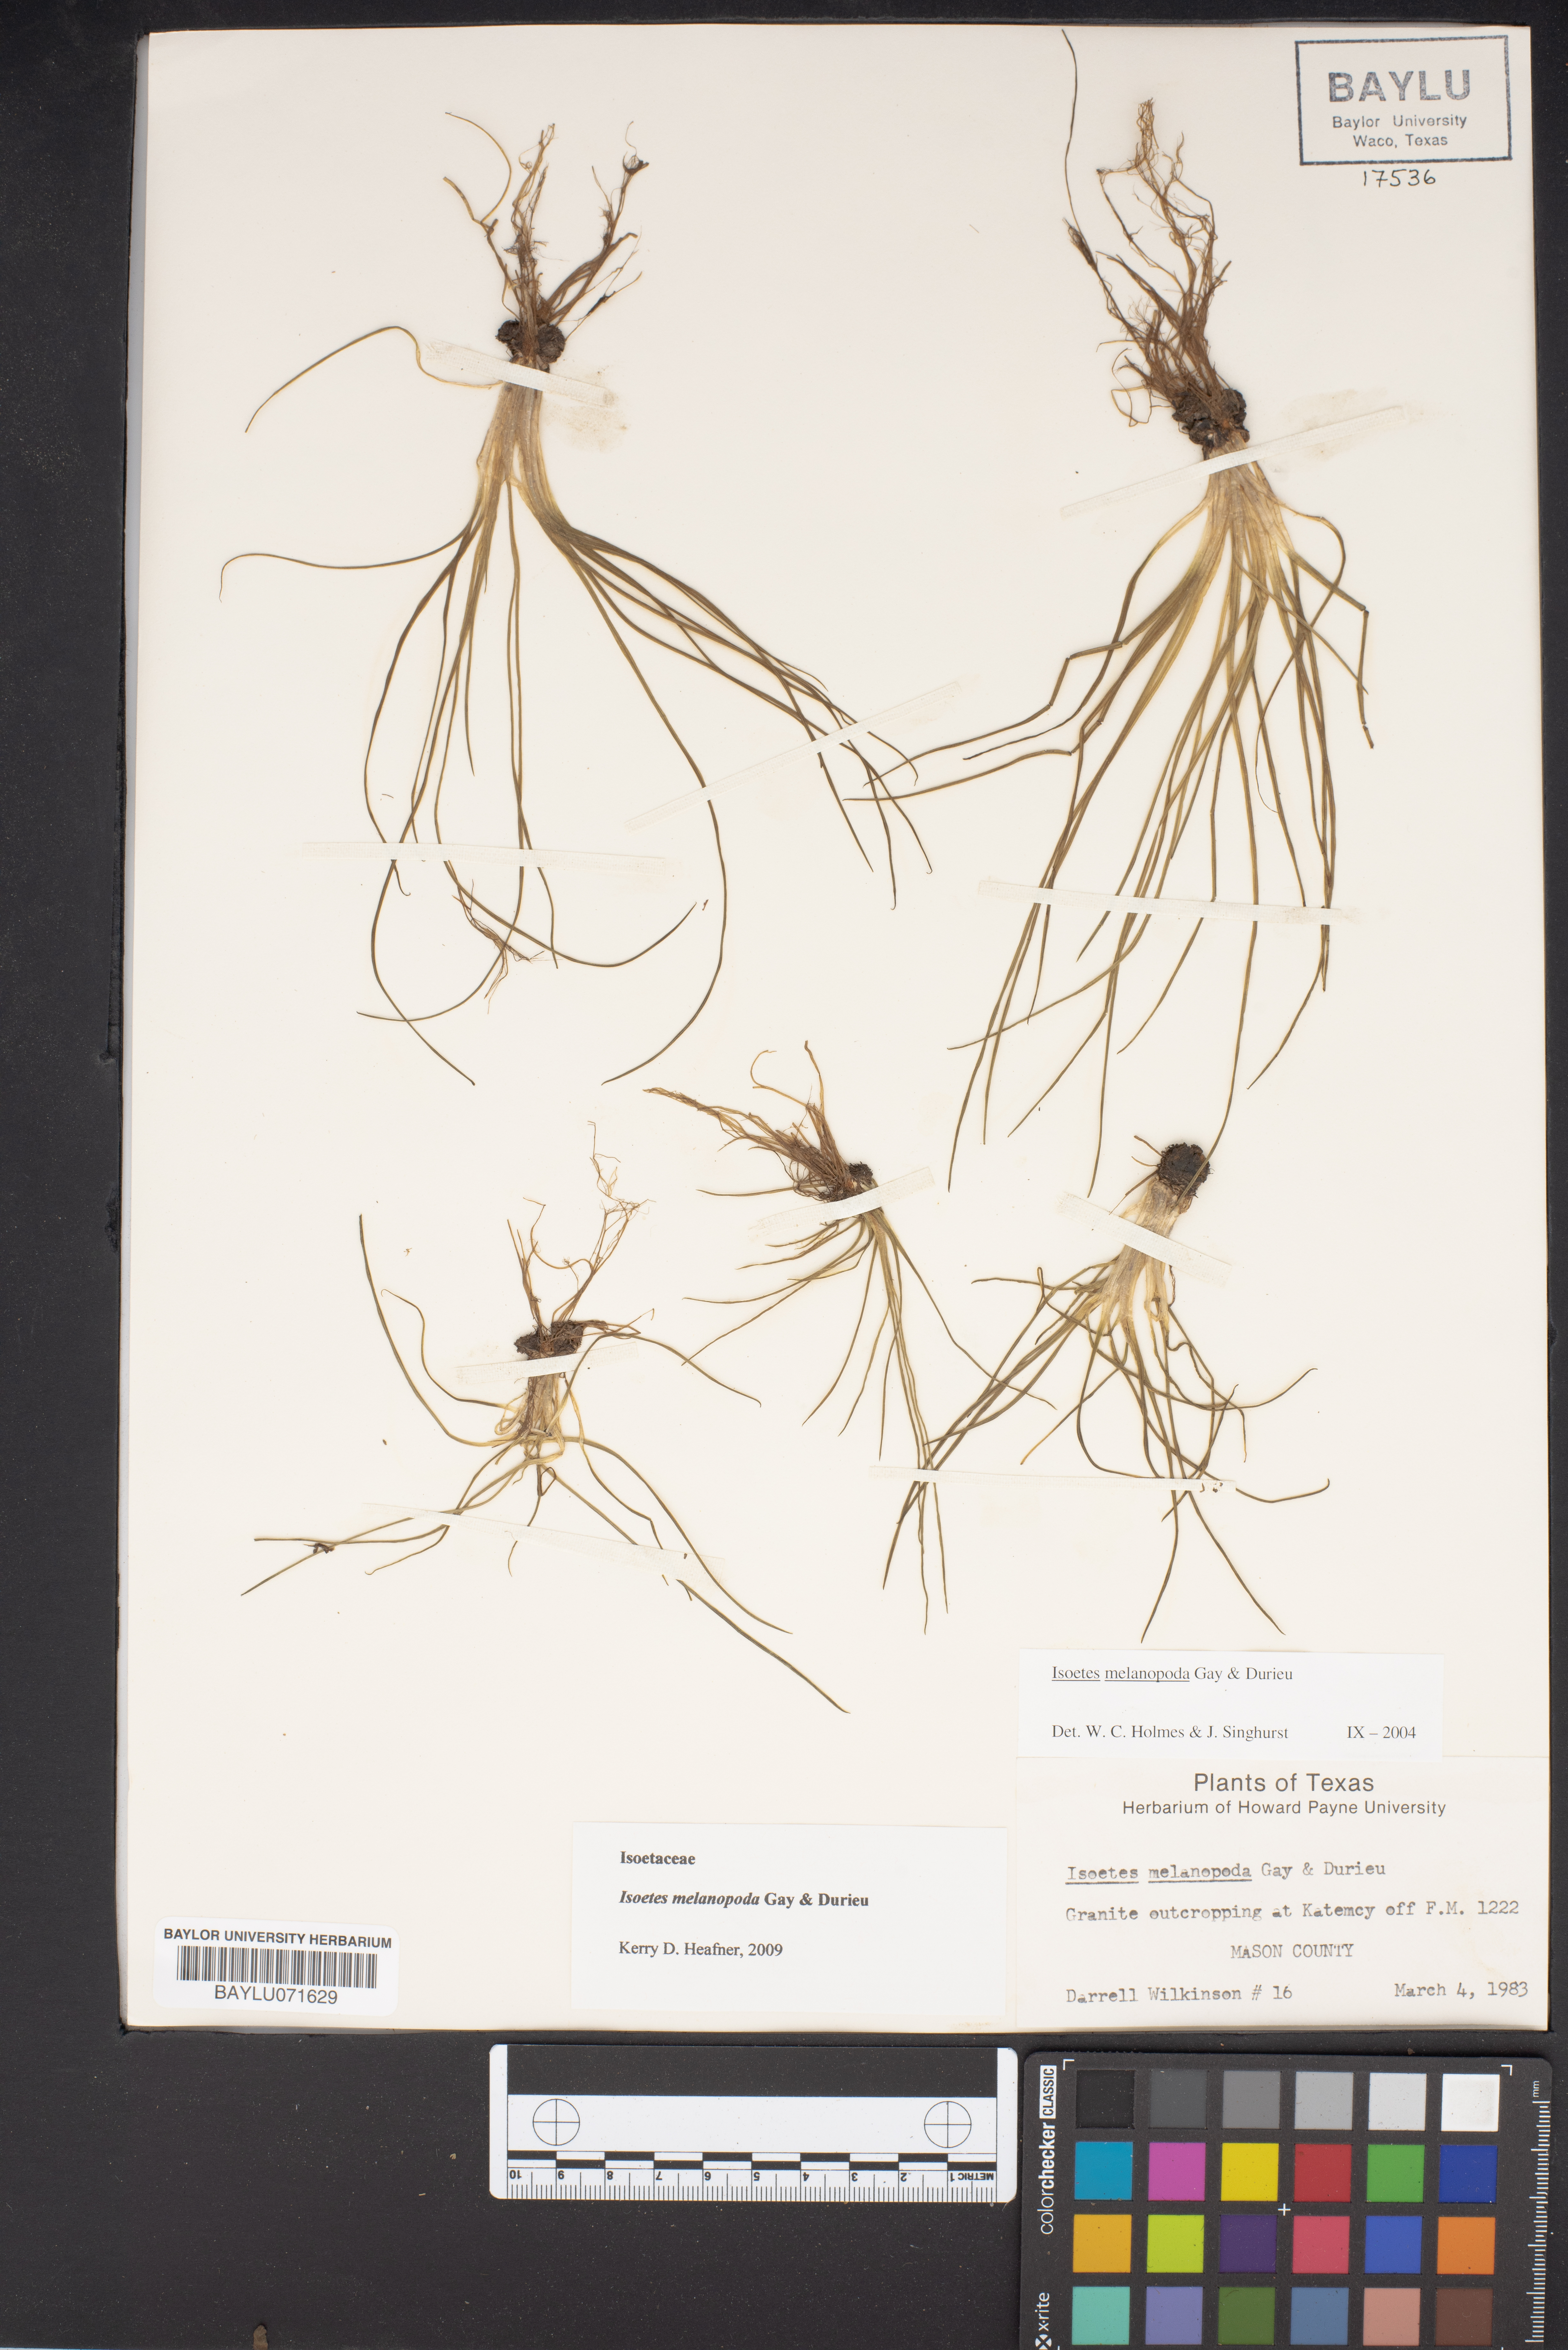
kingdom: Plantae
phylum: Tracheophyta
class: Lycopodiopsida
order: Isoetales
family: Isoetaceae
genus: Isoetes
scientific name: Isoetes melanopoda
